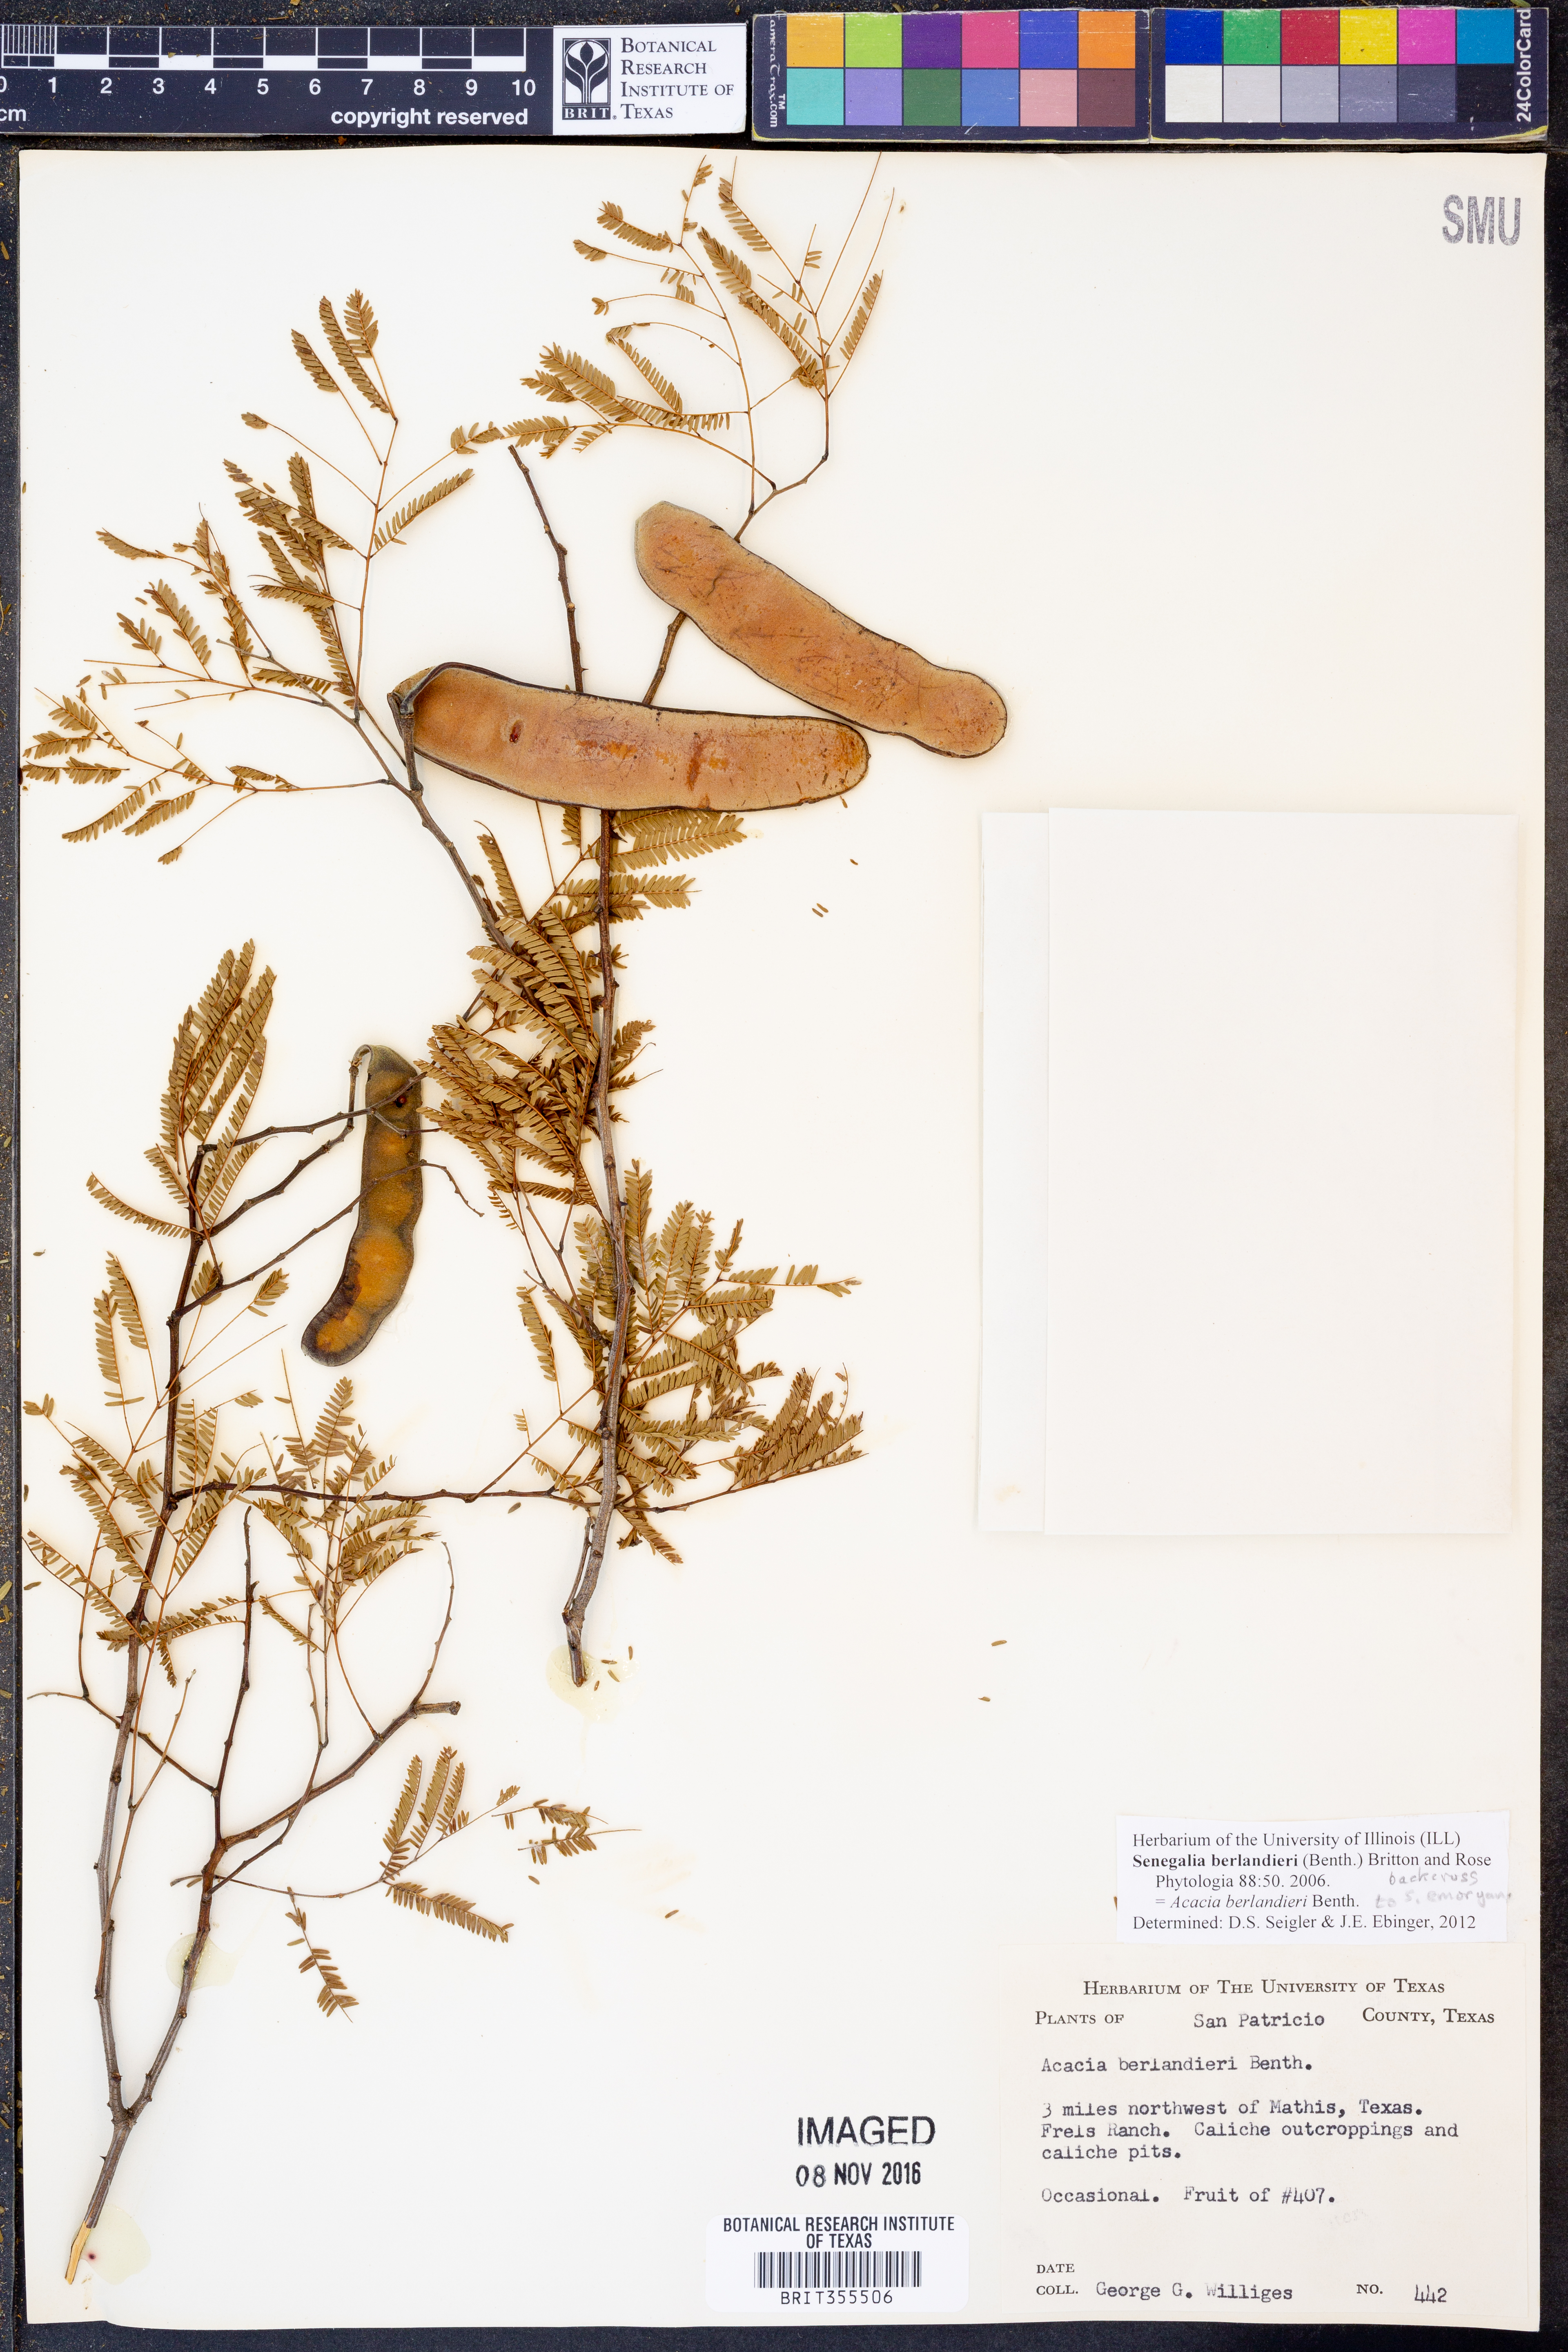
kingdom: Plantae
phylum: Tracheophyta
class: Magnoliopsida
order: Fabales
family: Fabaceae
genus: Senegalia
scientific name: Senegalia berlandieri
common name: Berlandier acacia
